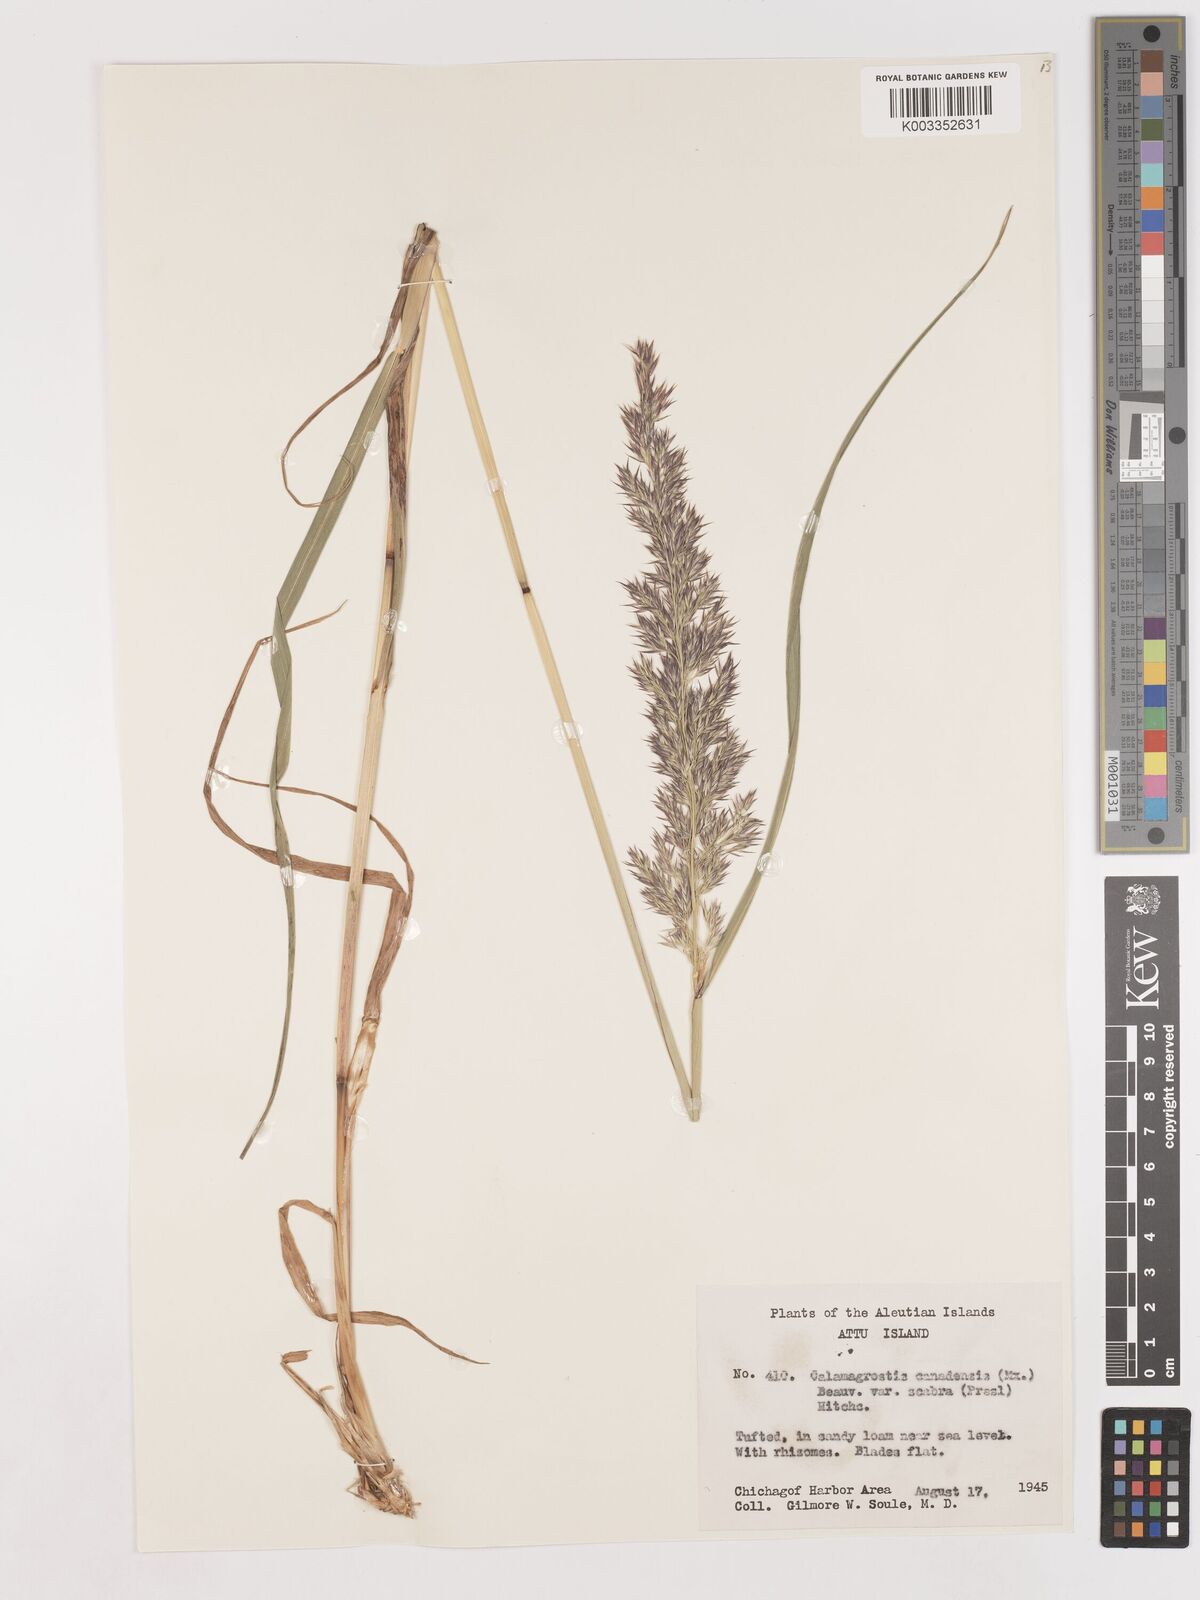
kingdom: Plantae
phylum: Tracheophyta
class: Liliopsida
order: Poales
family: Poaceae
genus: Calamagrostis
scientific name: Calamagrostis canadensis
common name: Canada bluejoint
